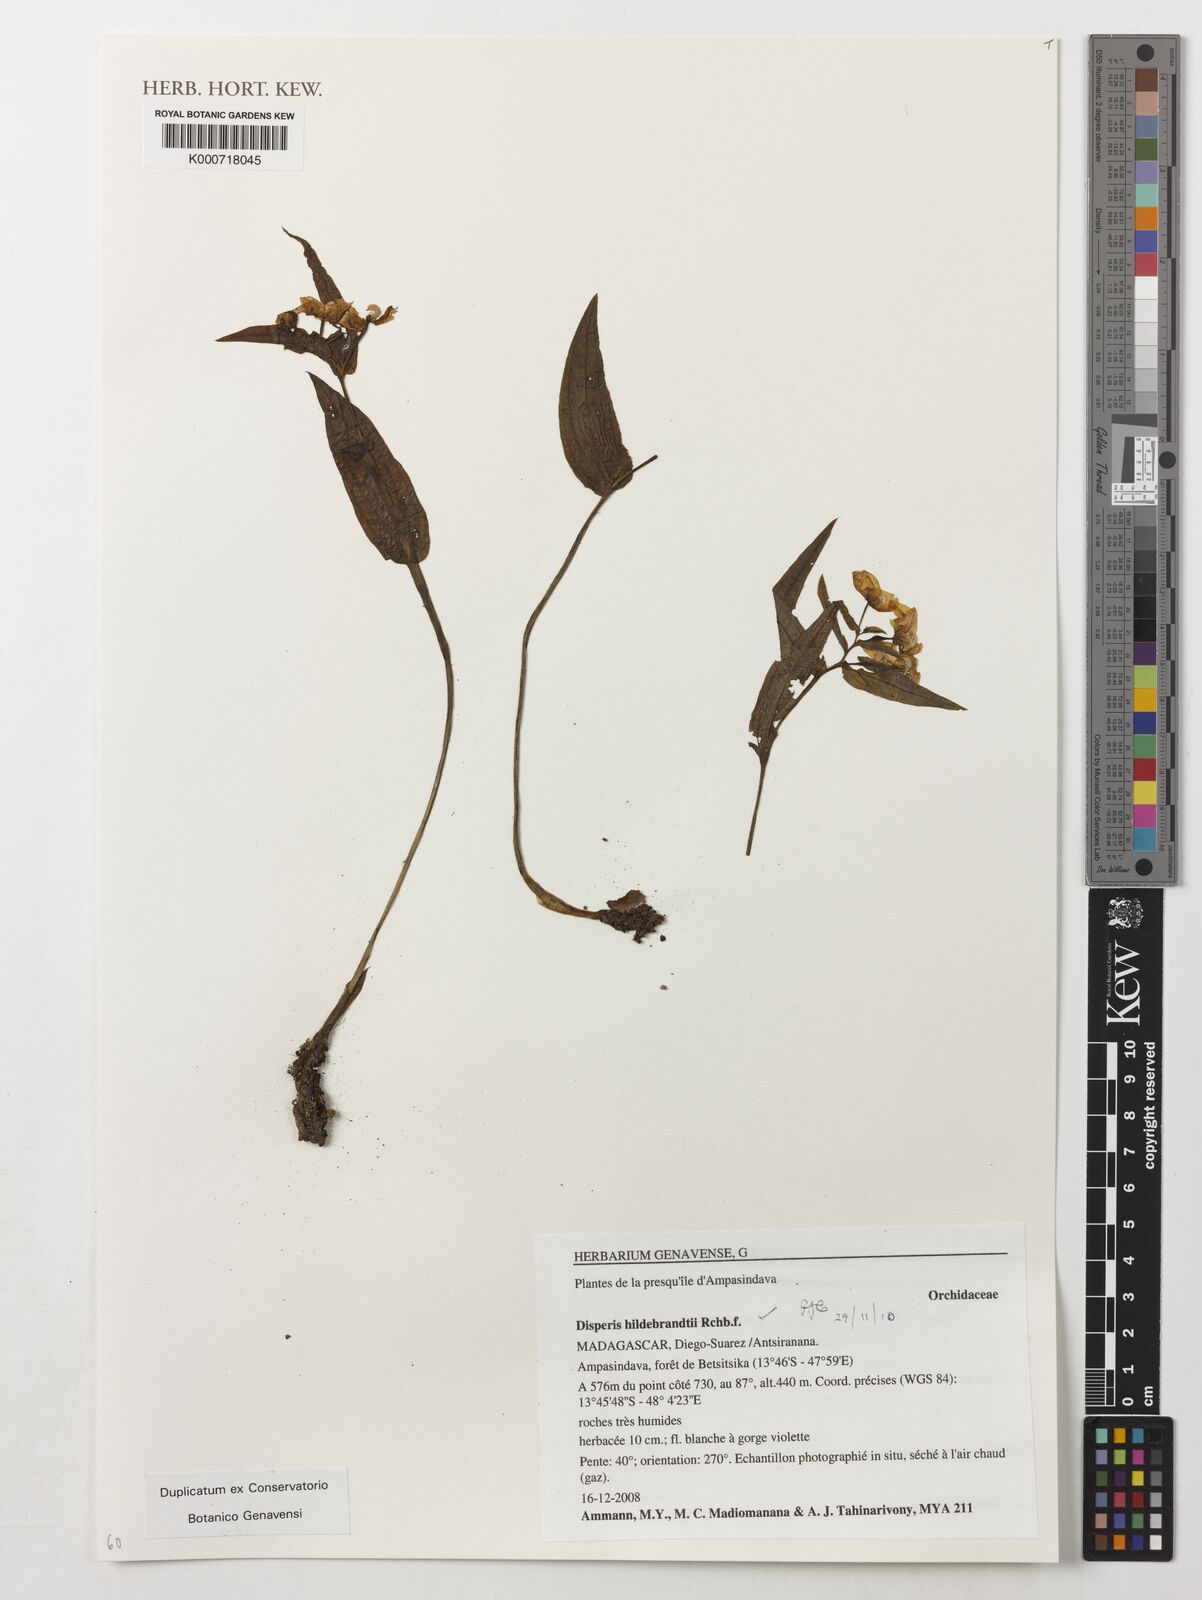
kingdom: Plantae
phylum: Tracheophyta
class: Liliopsida
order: Asparagales
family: Orchidaceae
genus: Disperis
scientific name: Disperis hildebrandtii
